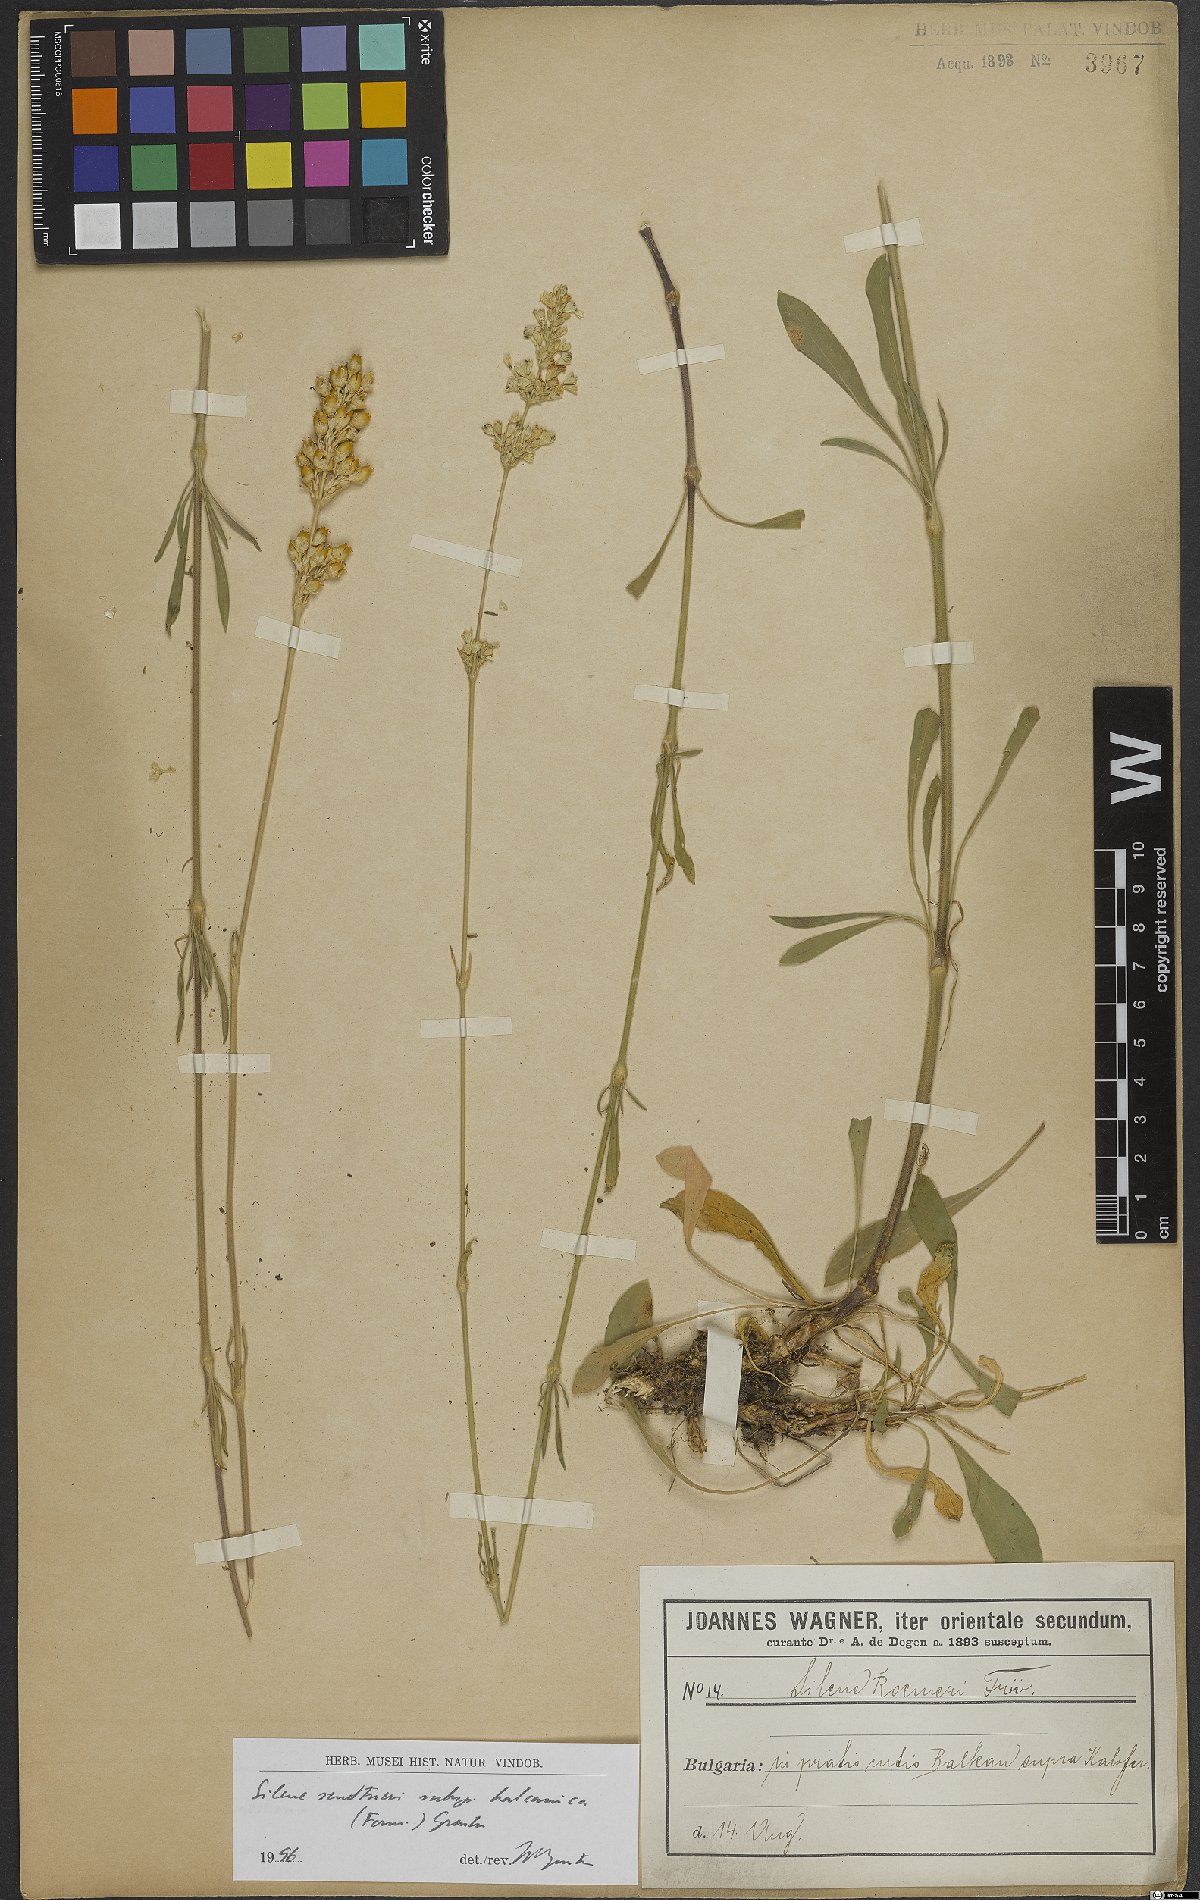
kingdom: Plantae
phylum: Tracheophyta
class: Magnoliopsida
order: Caryophyllales
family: Caryophyllaceae
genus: Silene
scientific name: Silene sendtneri
